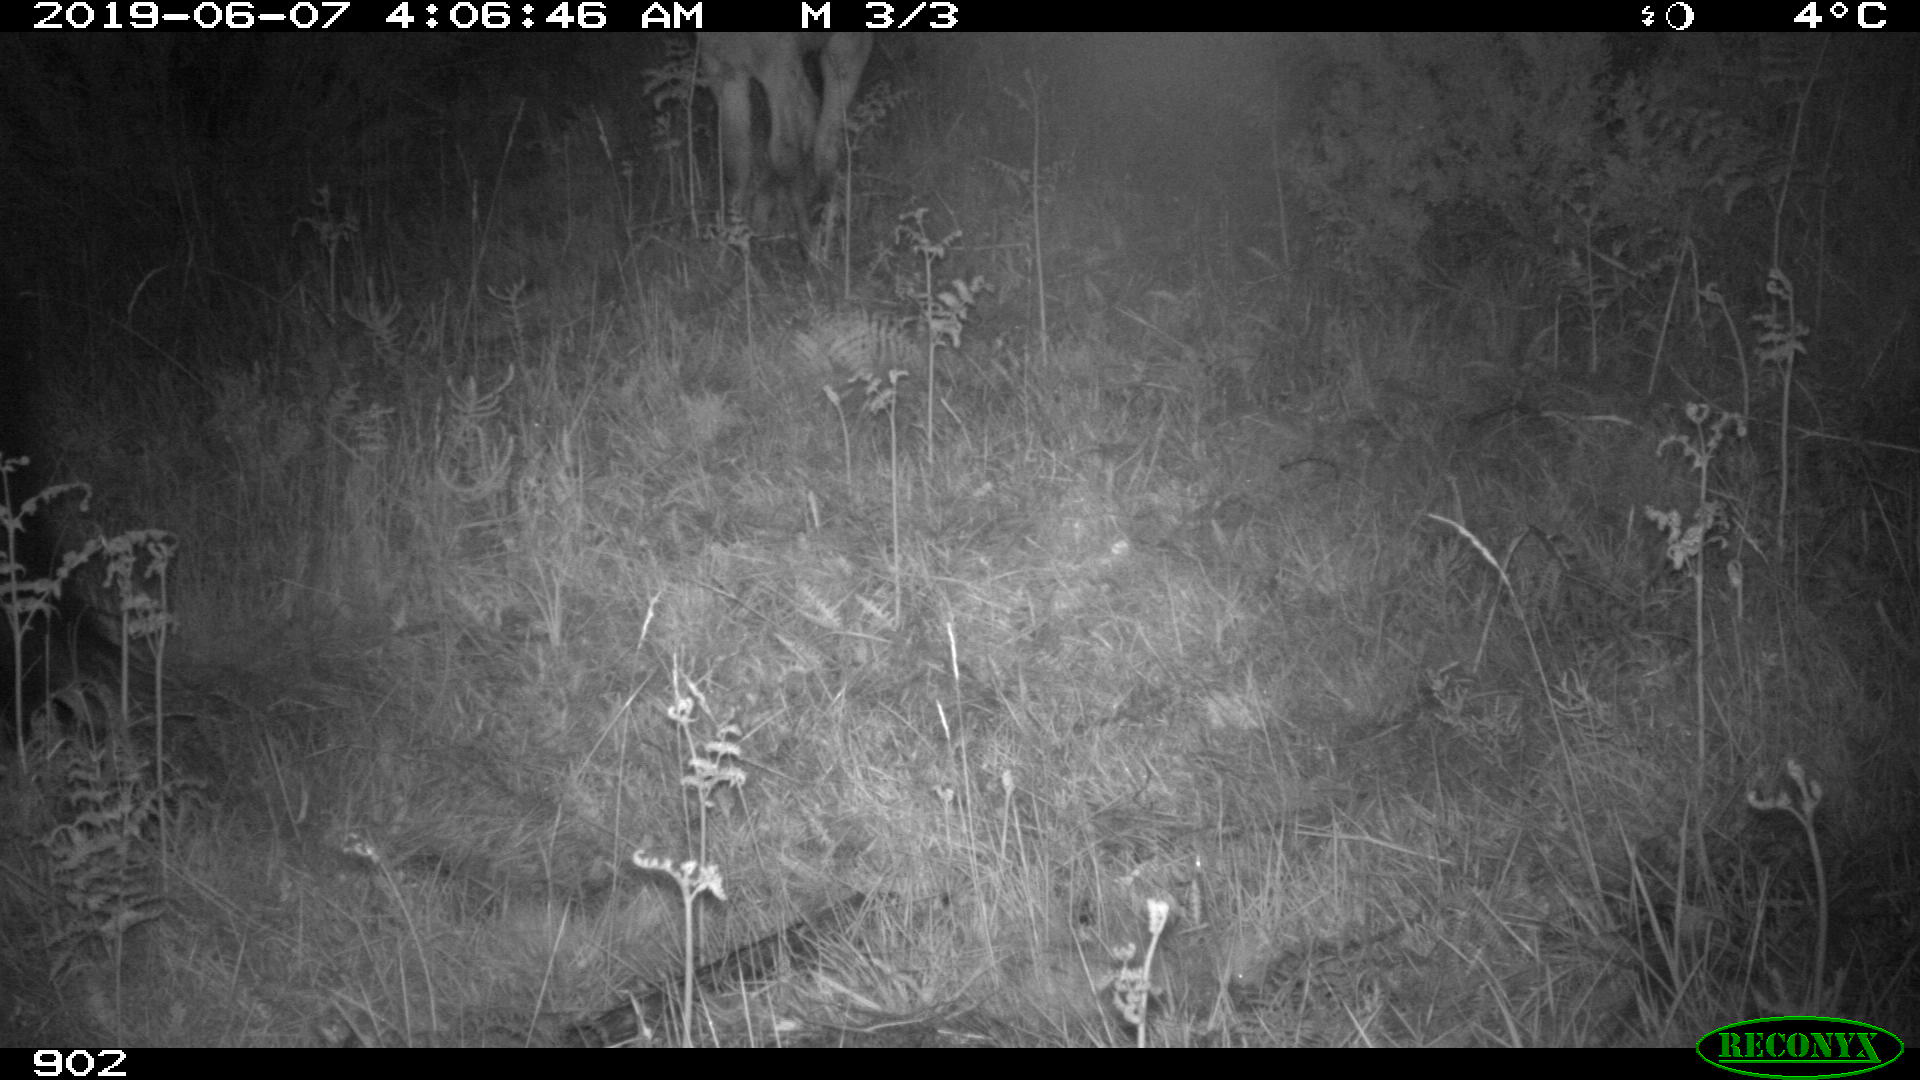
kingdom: Animalia
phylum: Chordata
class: Mammalia
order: Perissodactyla
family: Equidae
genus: Equus
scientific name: Equus caballus
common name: Horse
